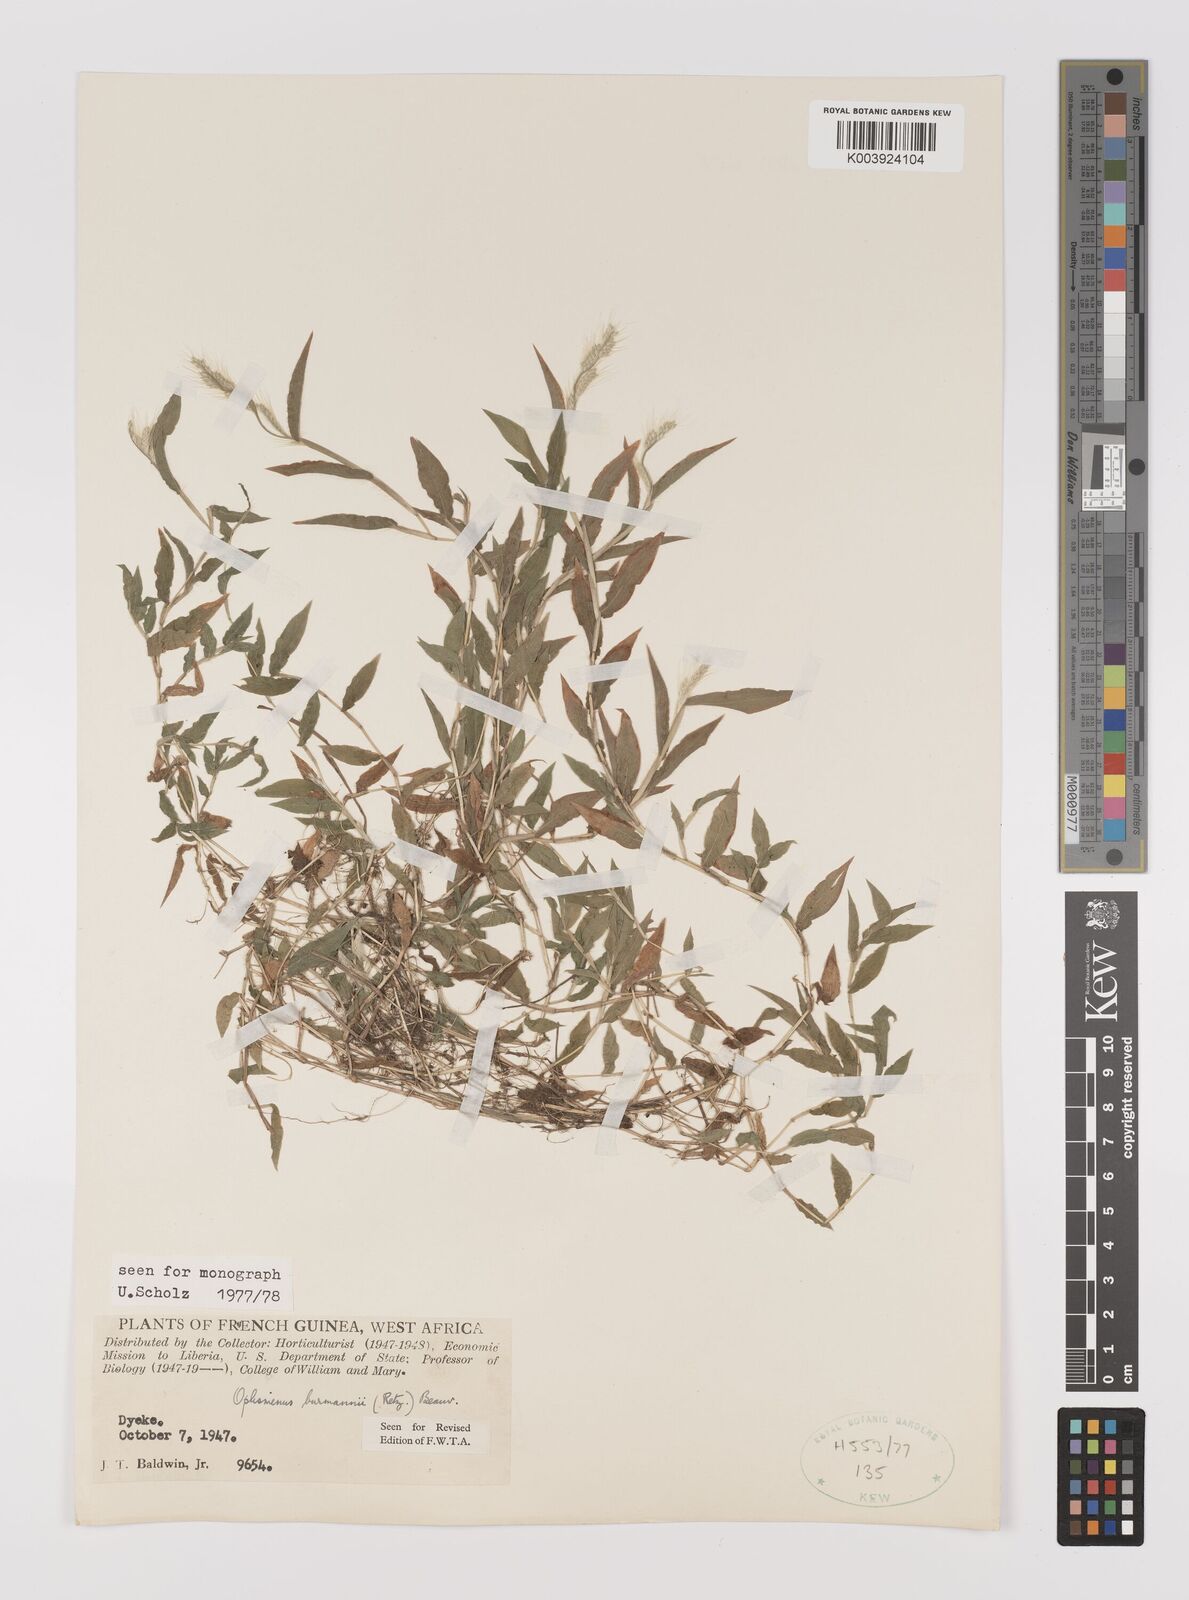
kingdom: Plantae
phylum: Tracheophyta
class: Liliopsida
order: Poales
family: Poaceae
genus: Oplismenus
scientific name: Oplismenus burmanni
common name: Burmann's basketgrass
